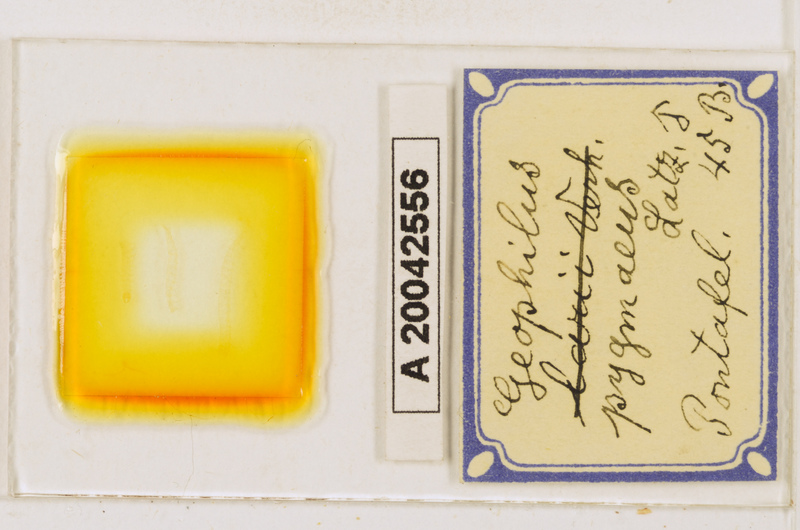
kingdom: Animalia
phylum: Arthropoda
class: Chilopoda
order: Geophilomorpha
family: Geophilidae
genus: Geophilus
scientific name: Geophilus pygmaeus
